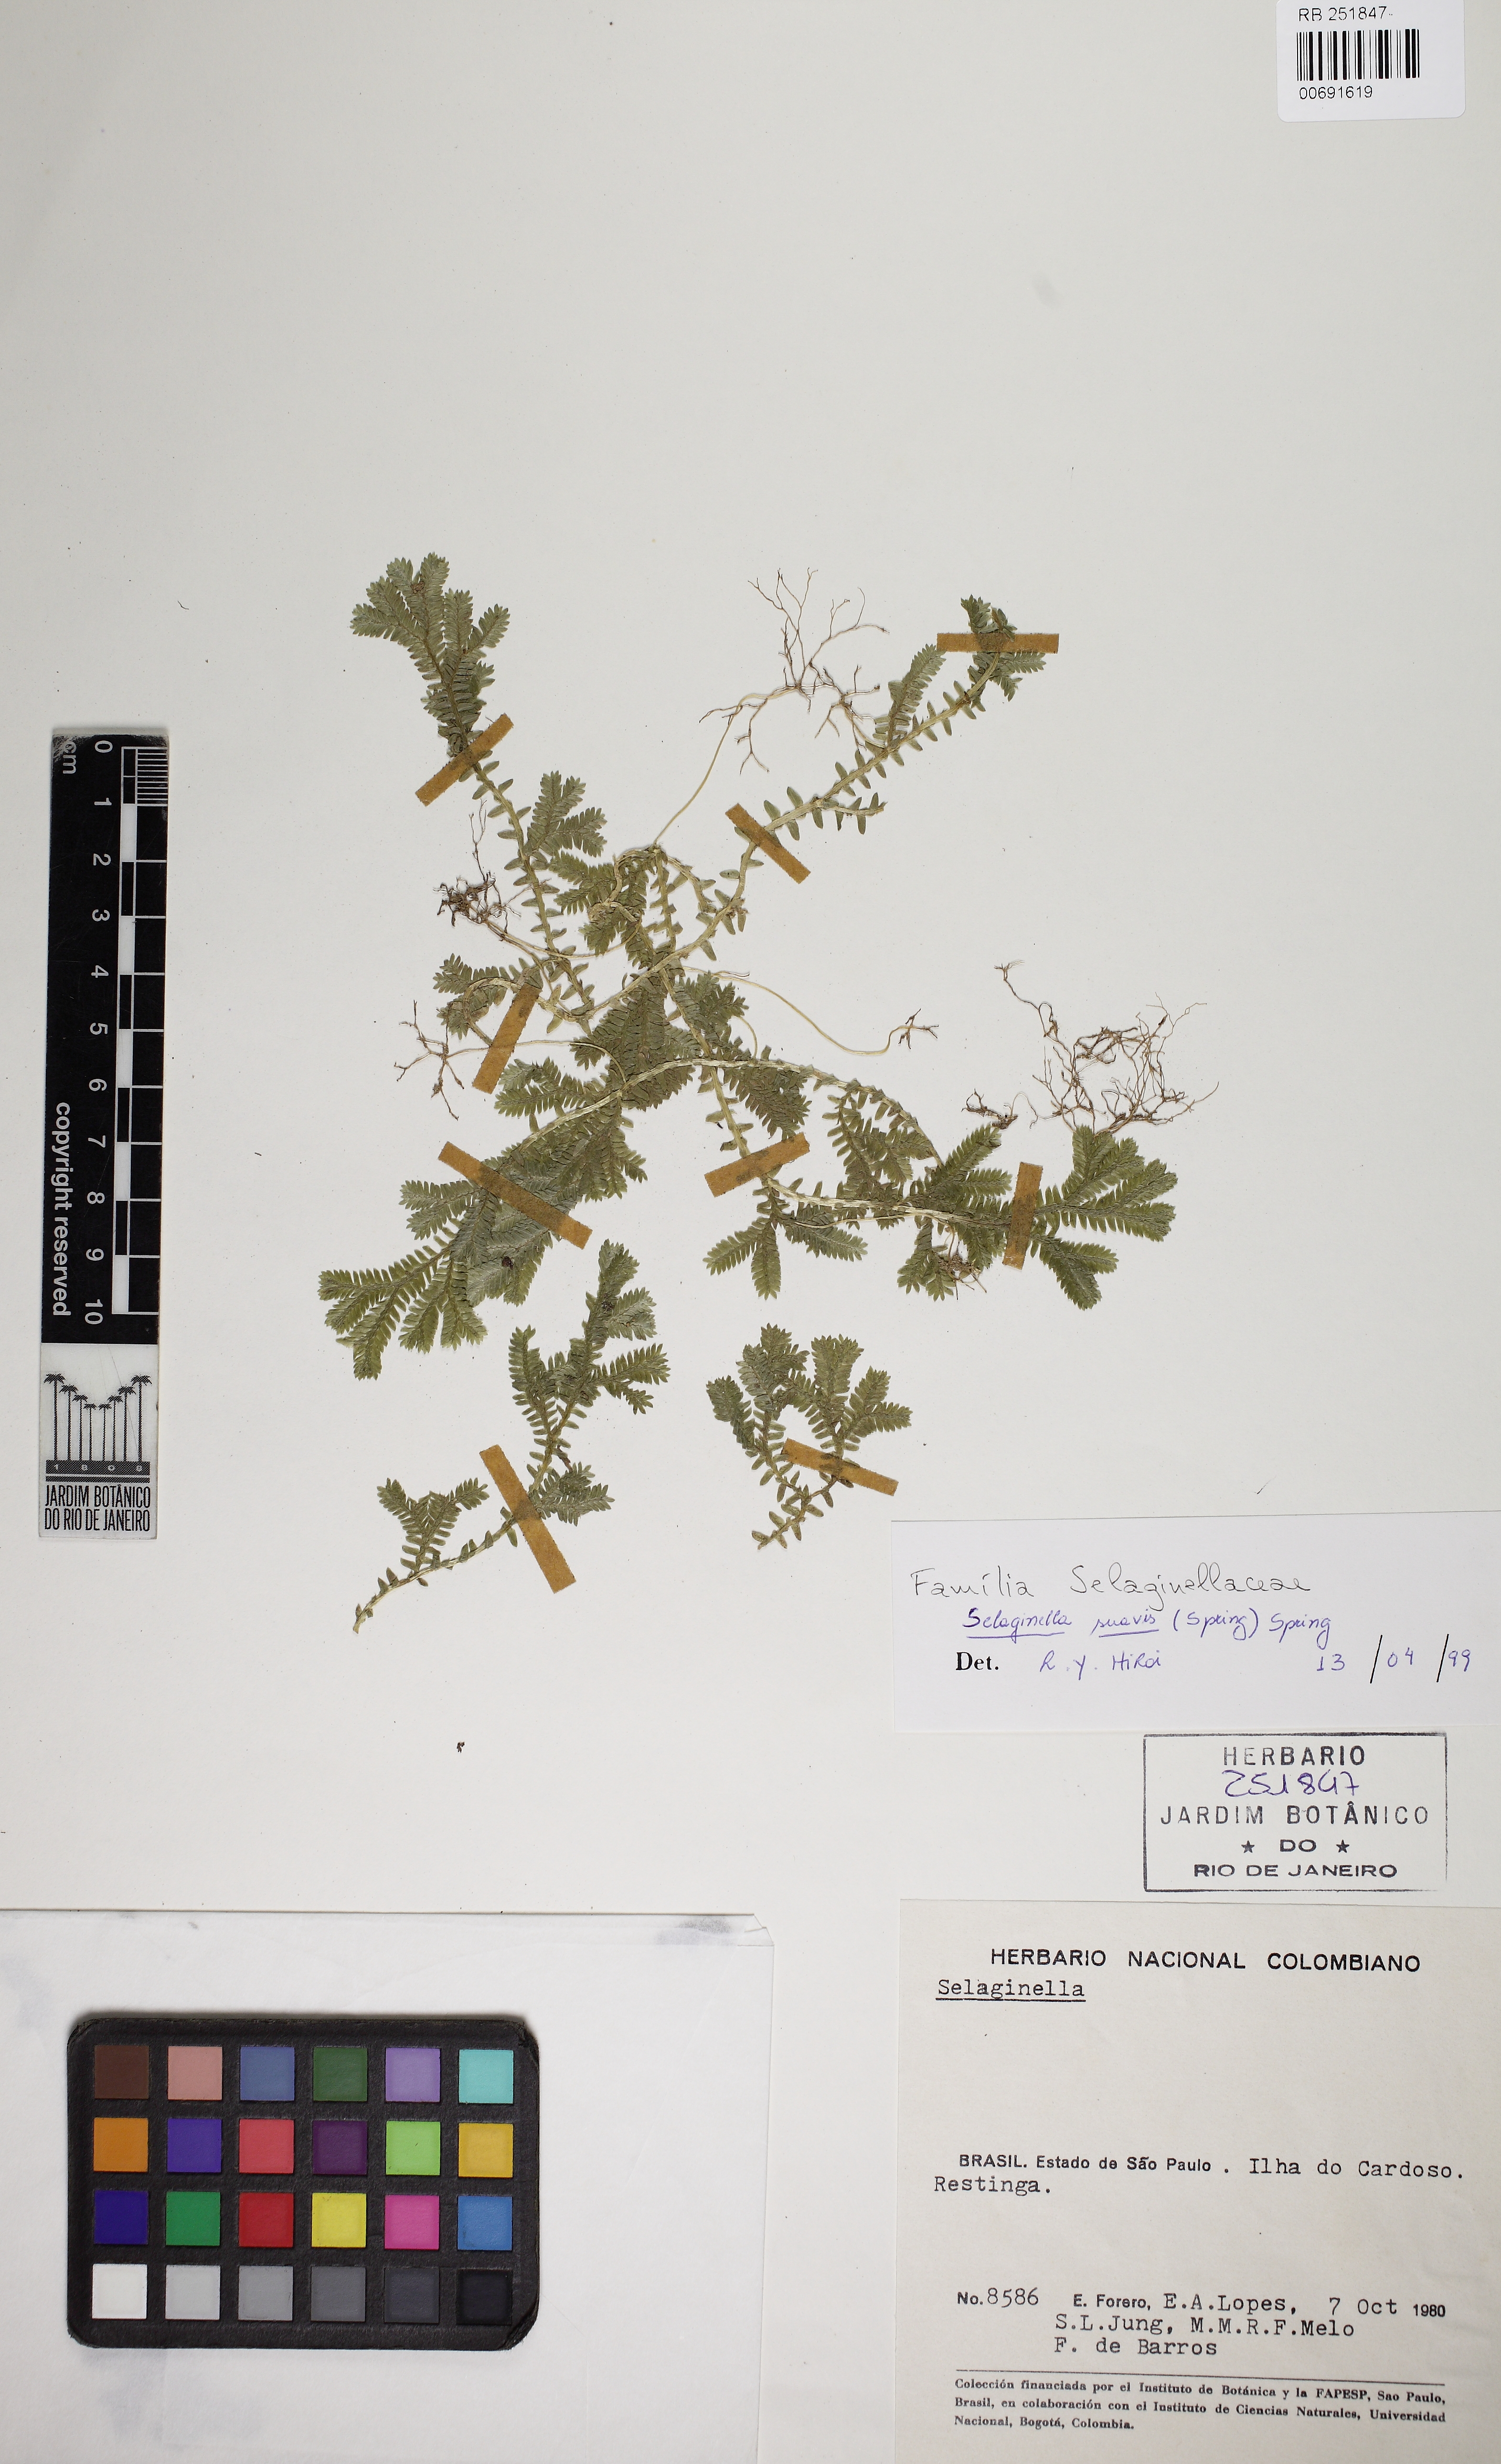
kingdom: Plantae
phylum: Tracheophyta
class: Lycopodiopsida
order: Selaginellales
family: Selaginellaceae
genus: Selaginella
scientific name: Selaginella suavis
